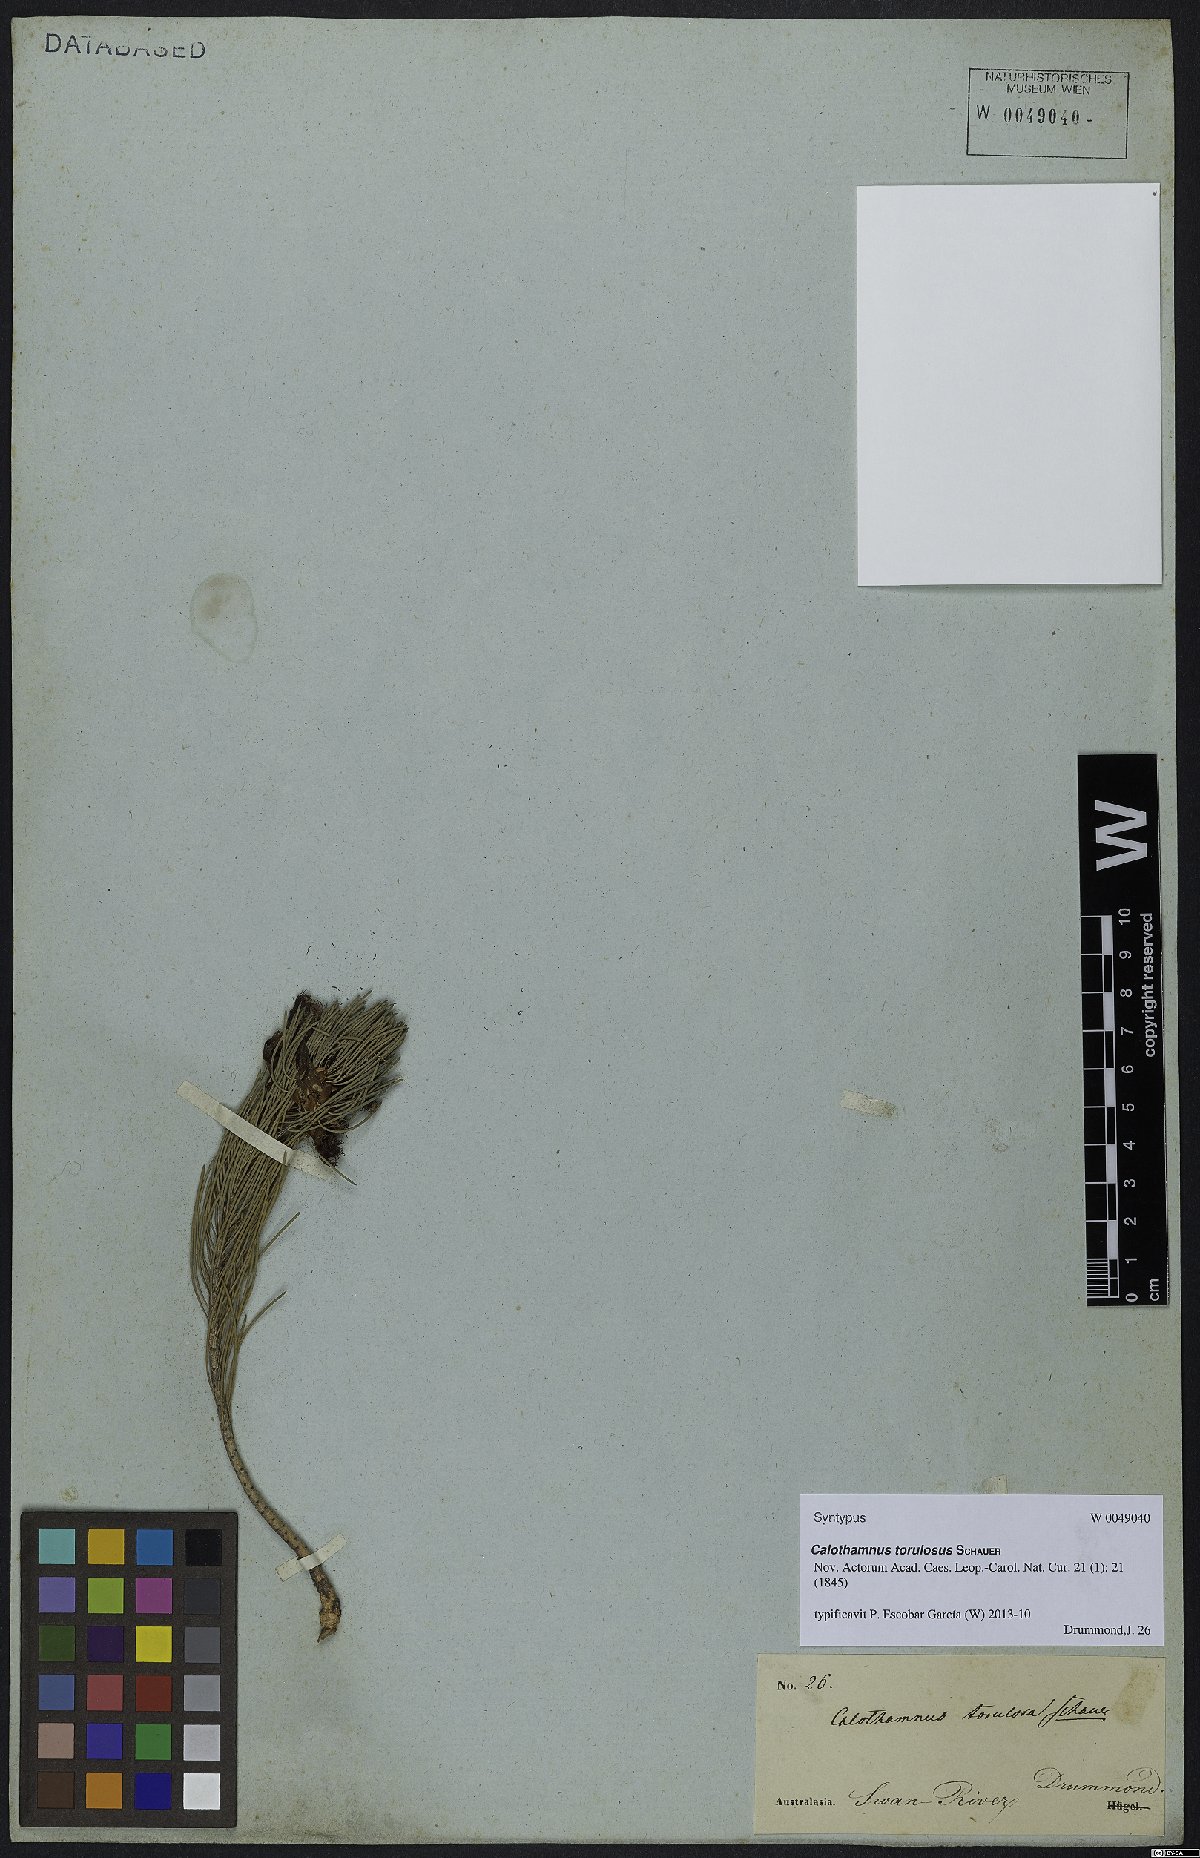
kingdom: Plantae
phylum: Tracheophyta
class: Magnoliopsida
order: Myrtales
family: Myrtaceae
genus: Melaleuca
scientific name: Melaleuca torulosa
